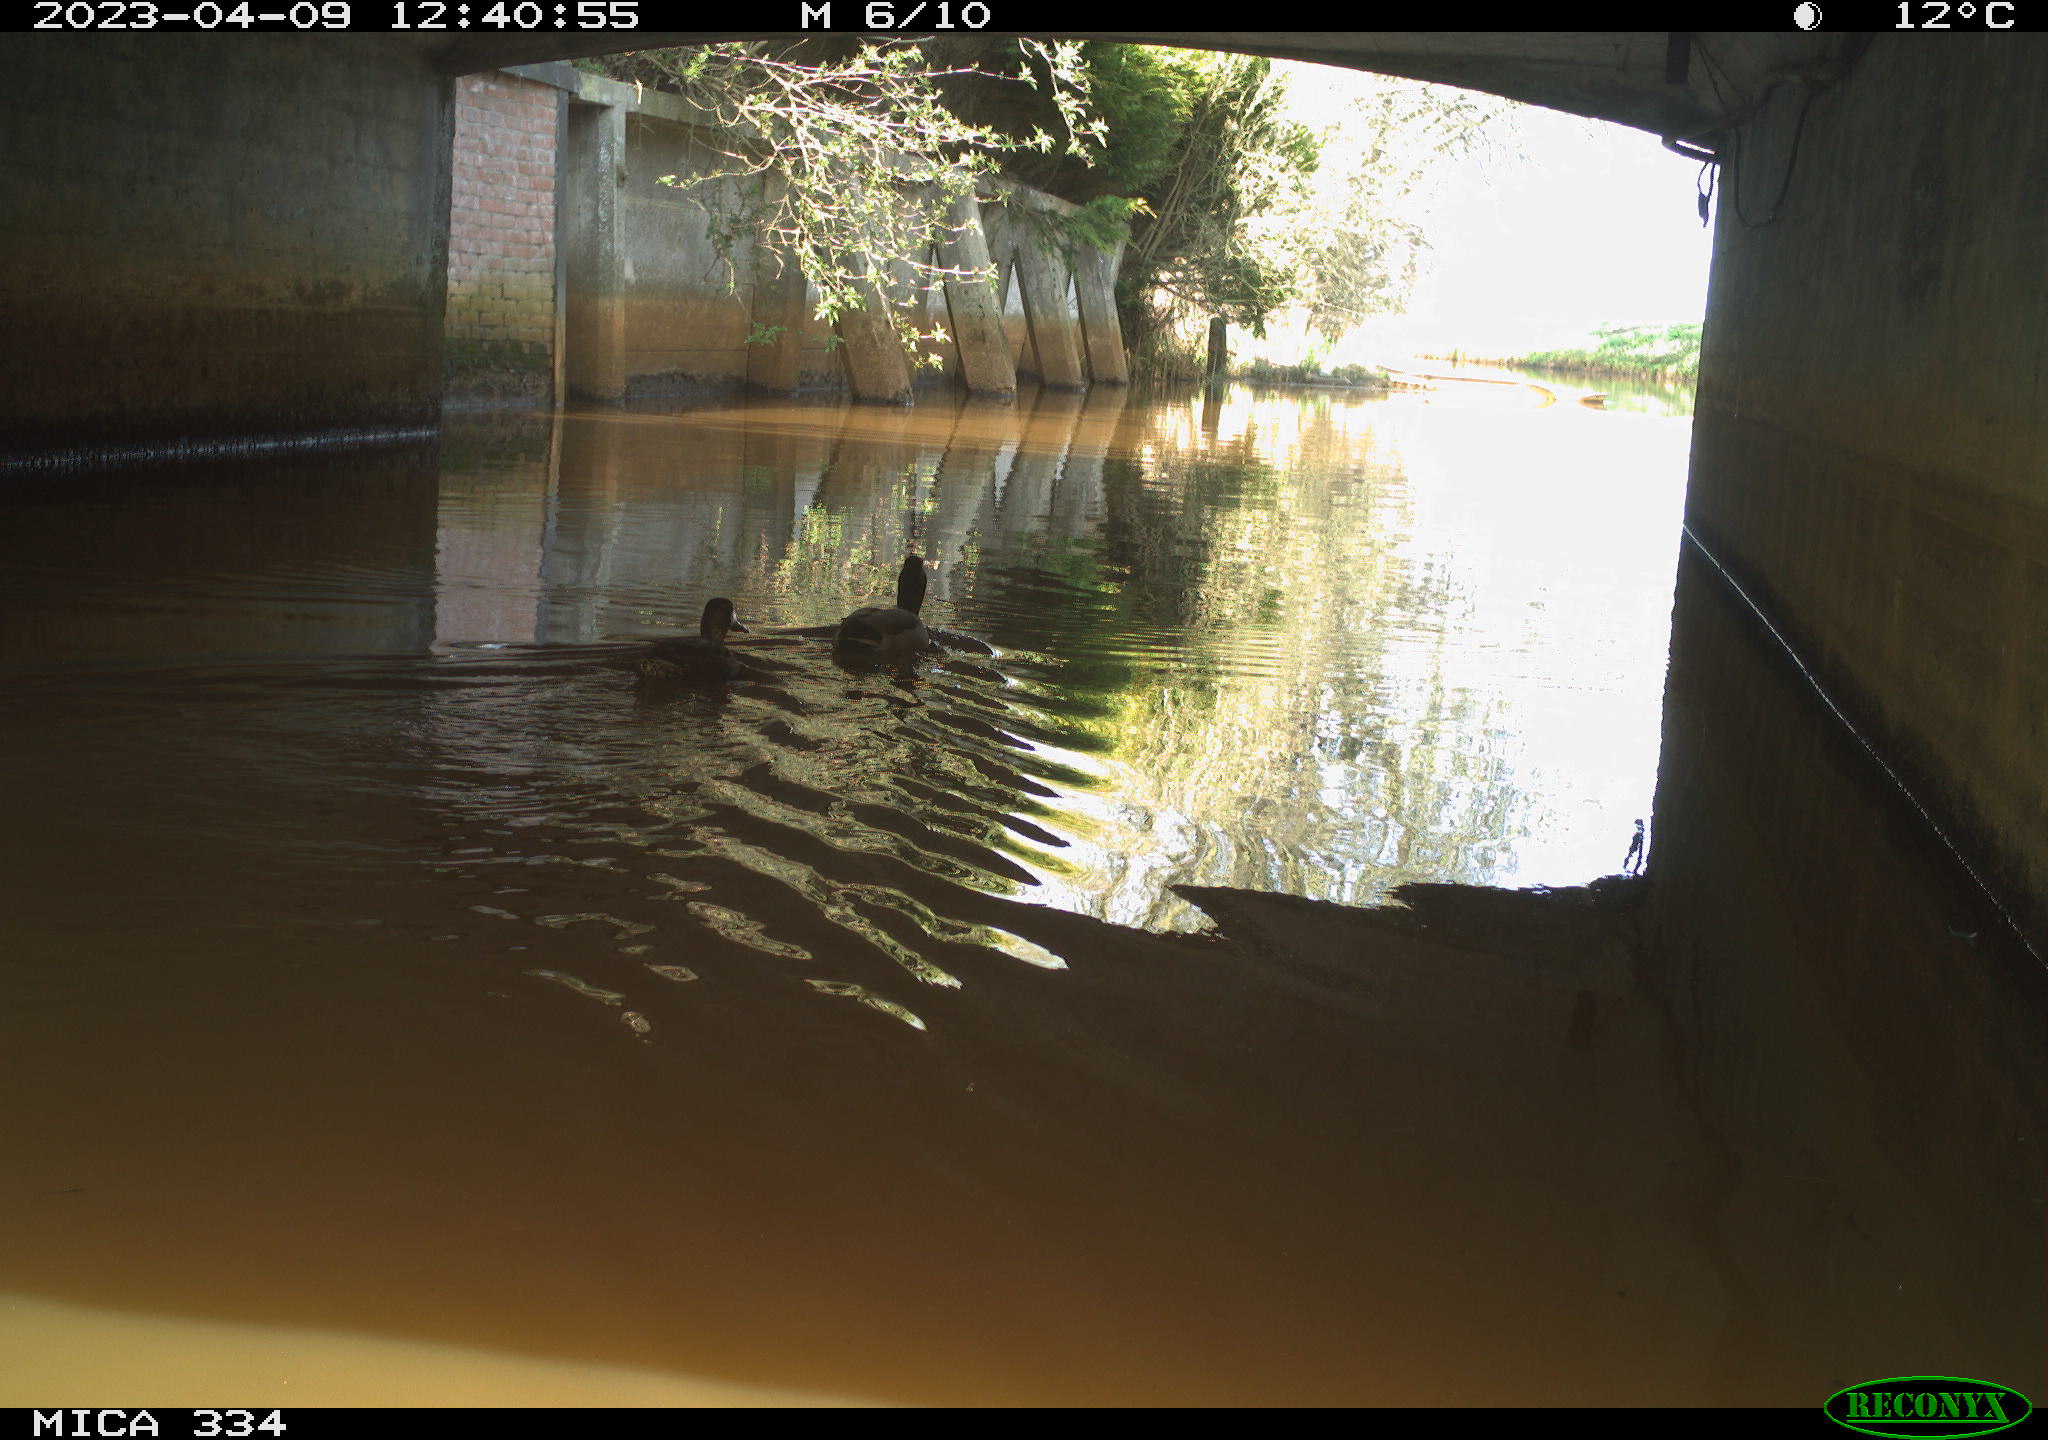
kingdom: Animalia
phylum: Chordata
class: Aves
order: Anseriformes
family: Anatidae
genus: Anas
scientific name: Anas
